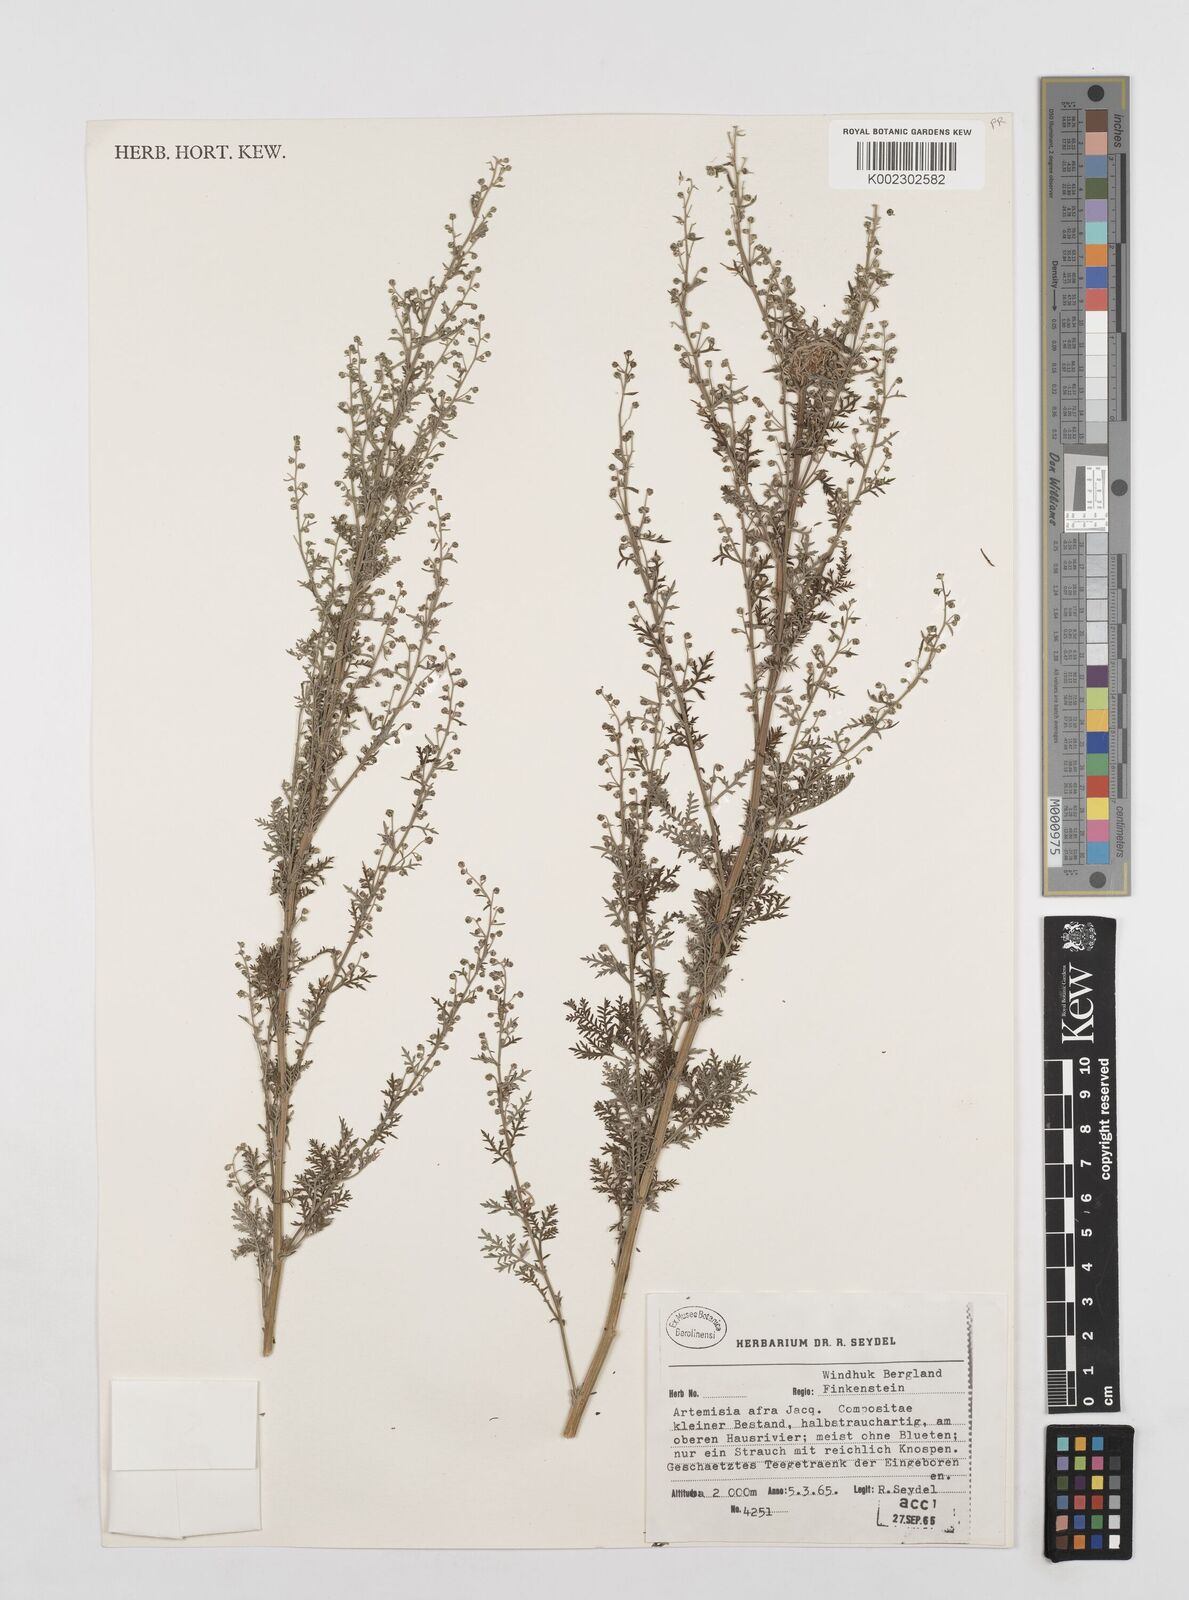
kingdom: Plantae
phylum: Tracheophyta
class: Magnoliopsida
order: Asterales
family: Asteraceae
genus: Artemisia
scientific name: Artemisia afra
